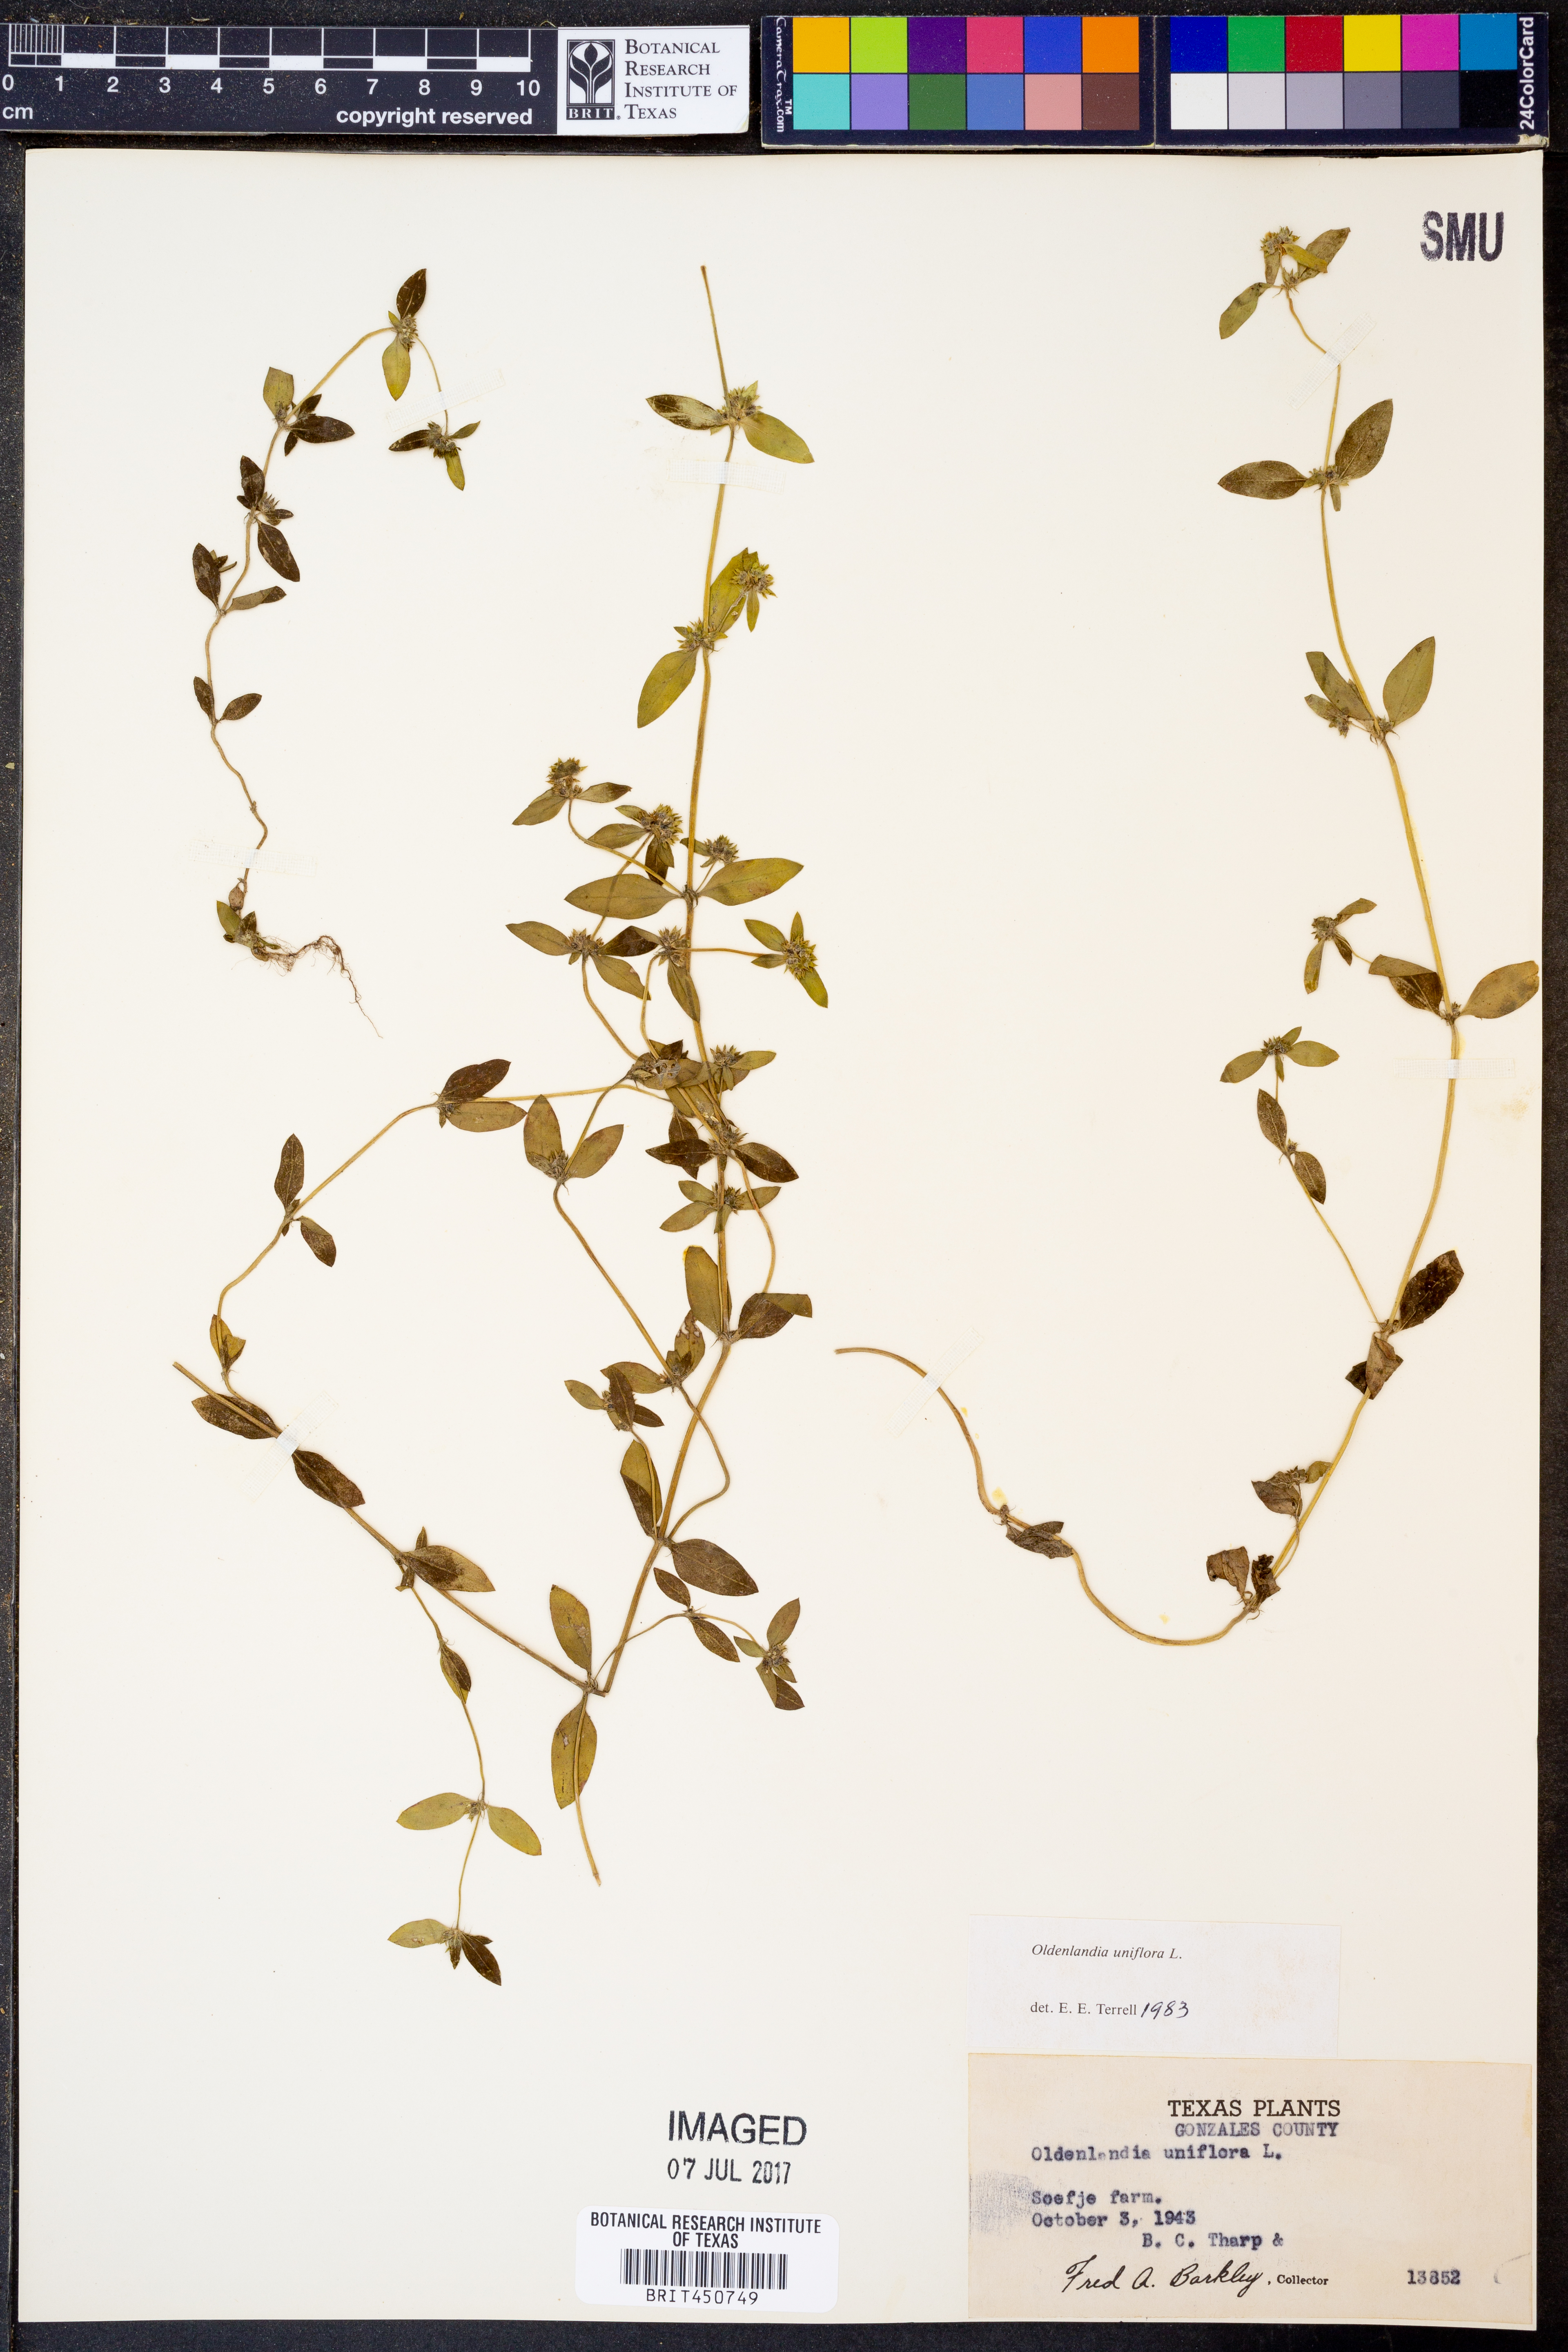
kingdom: Plantae
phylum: Tracheophyta
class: Magnoliopsida
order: Gentianales
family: Rubiaceae
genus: Edrastima
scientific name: Edrastima uniflora
